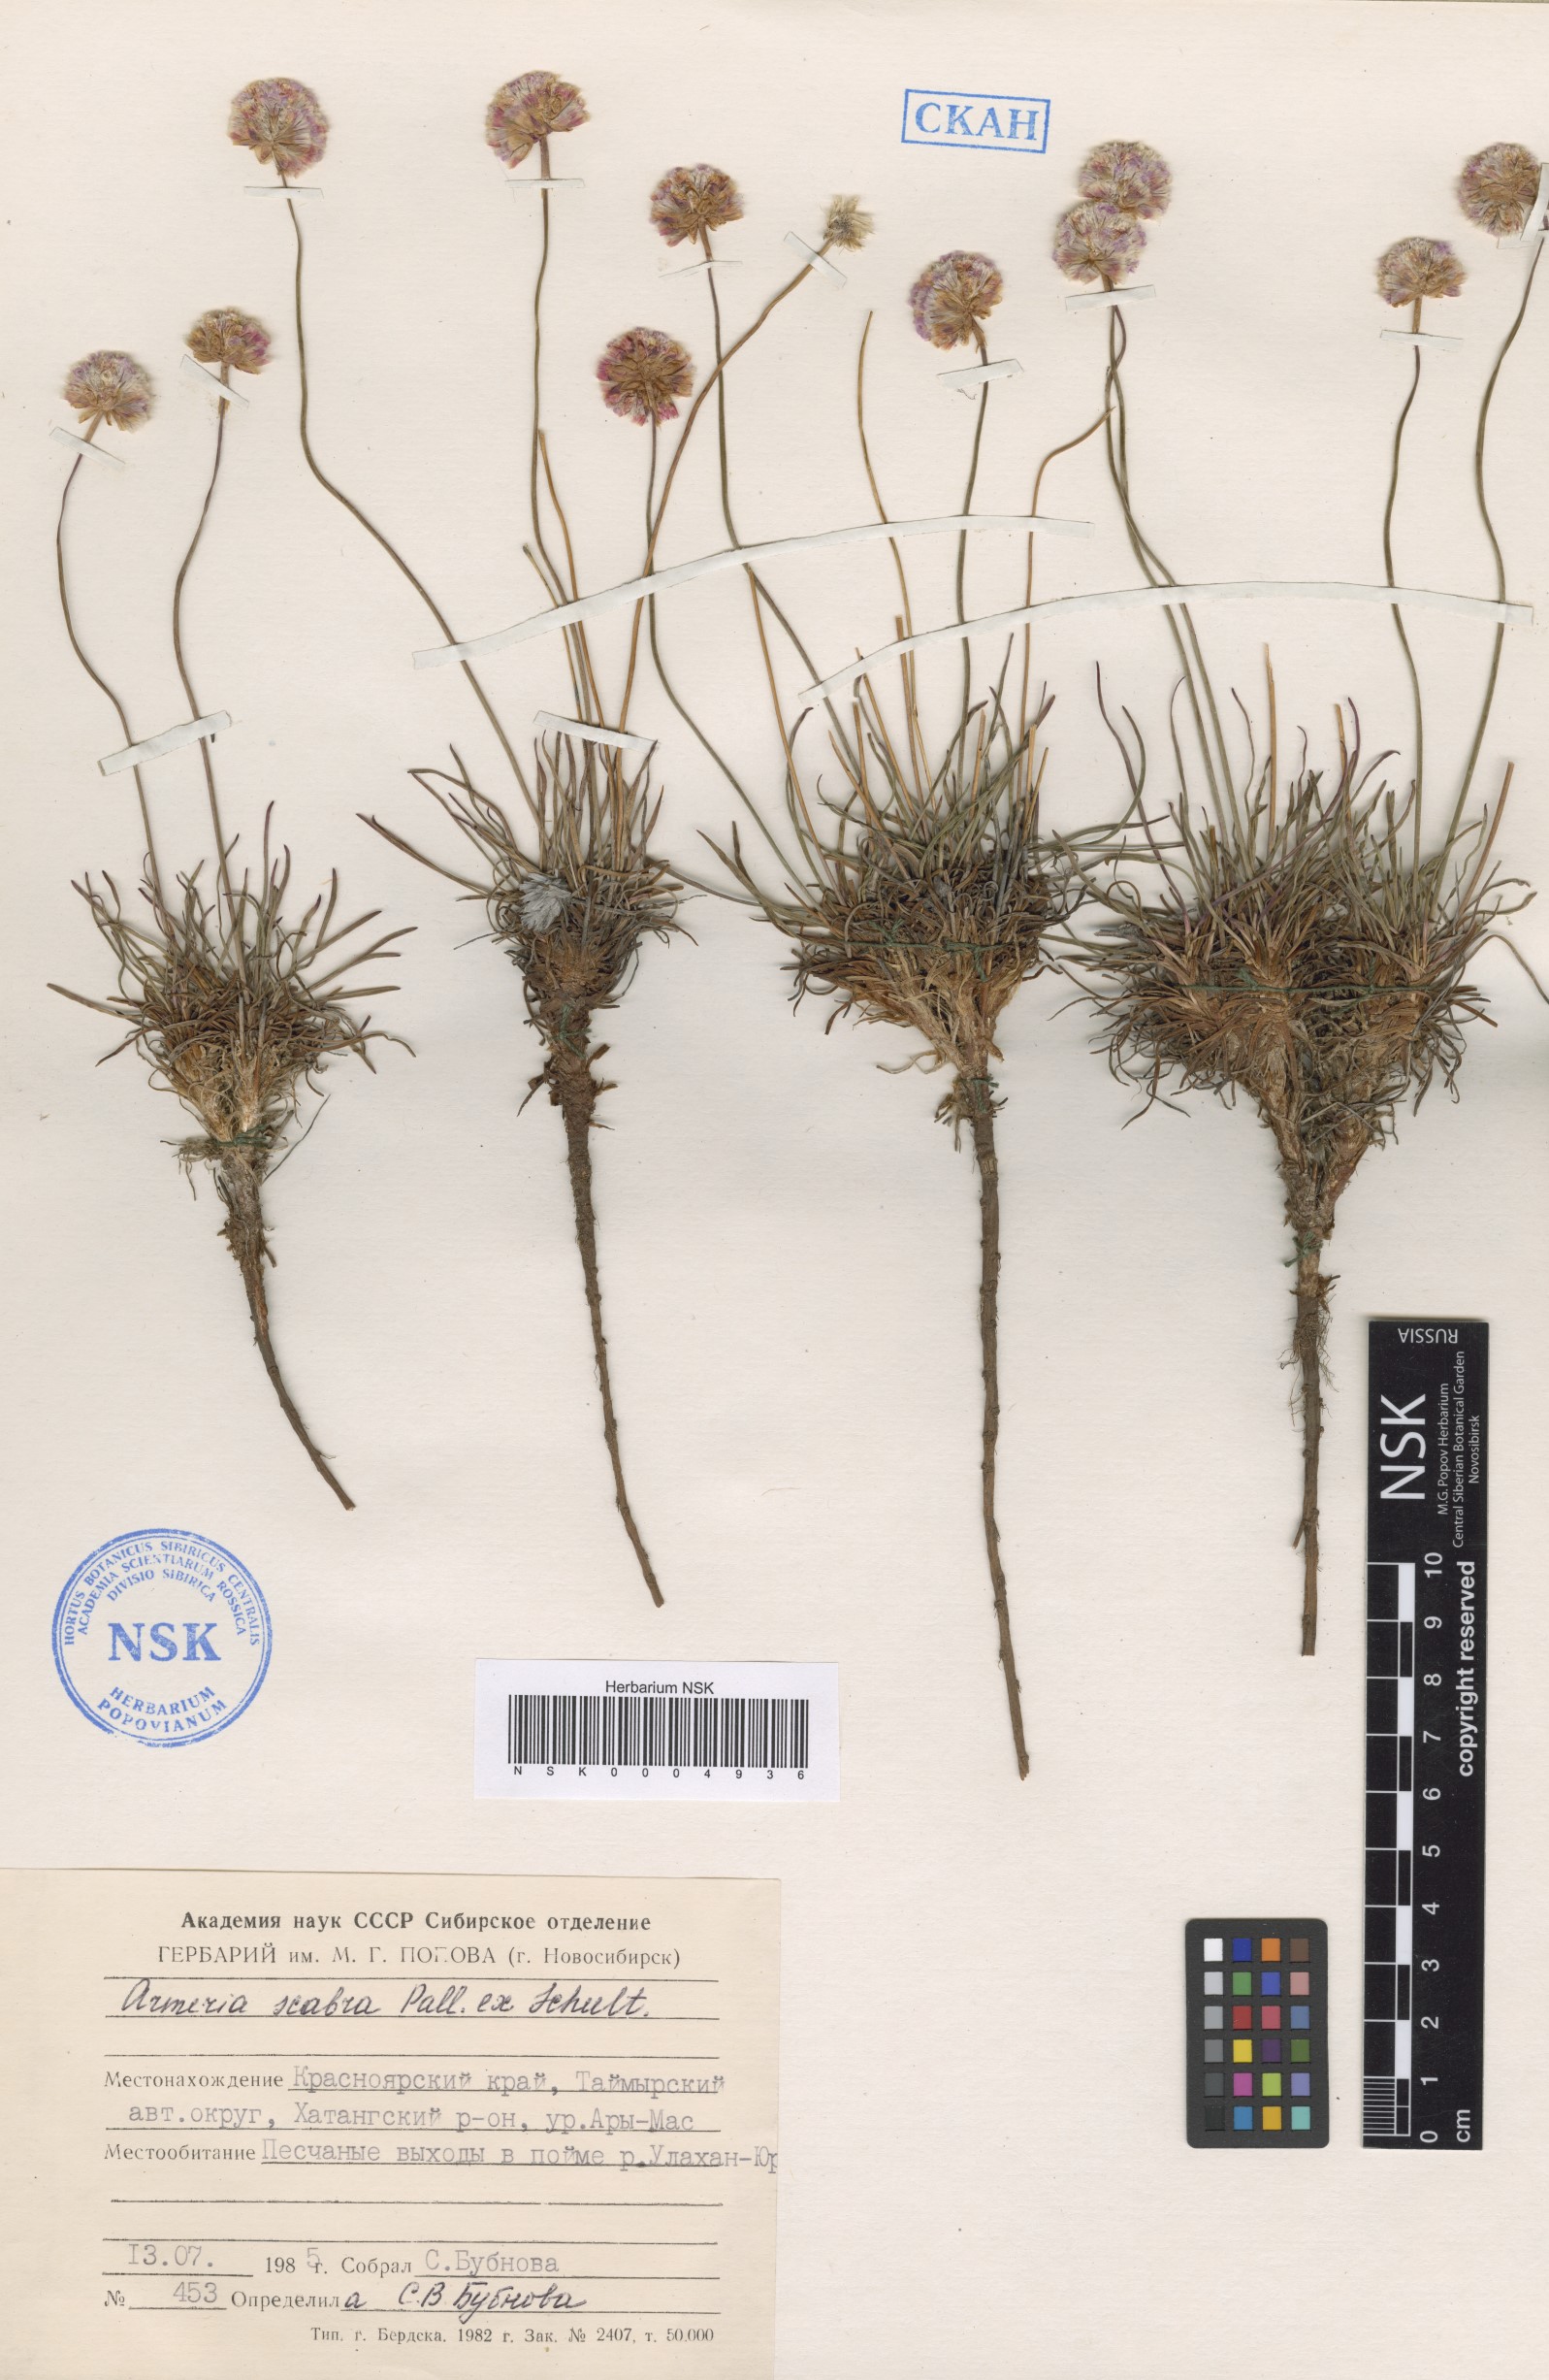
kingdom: Plantae
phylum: Tracheophyta
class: Magnoliopsida
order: Caryophyllales
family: Plumbaginaceae
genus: Armeria
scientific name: Armeria maritima
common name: Thrift
